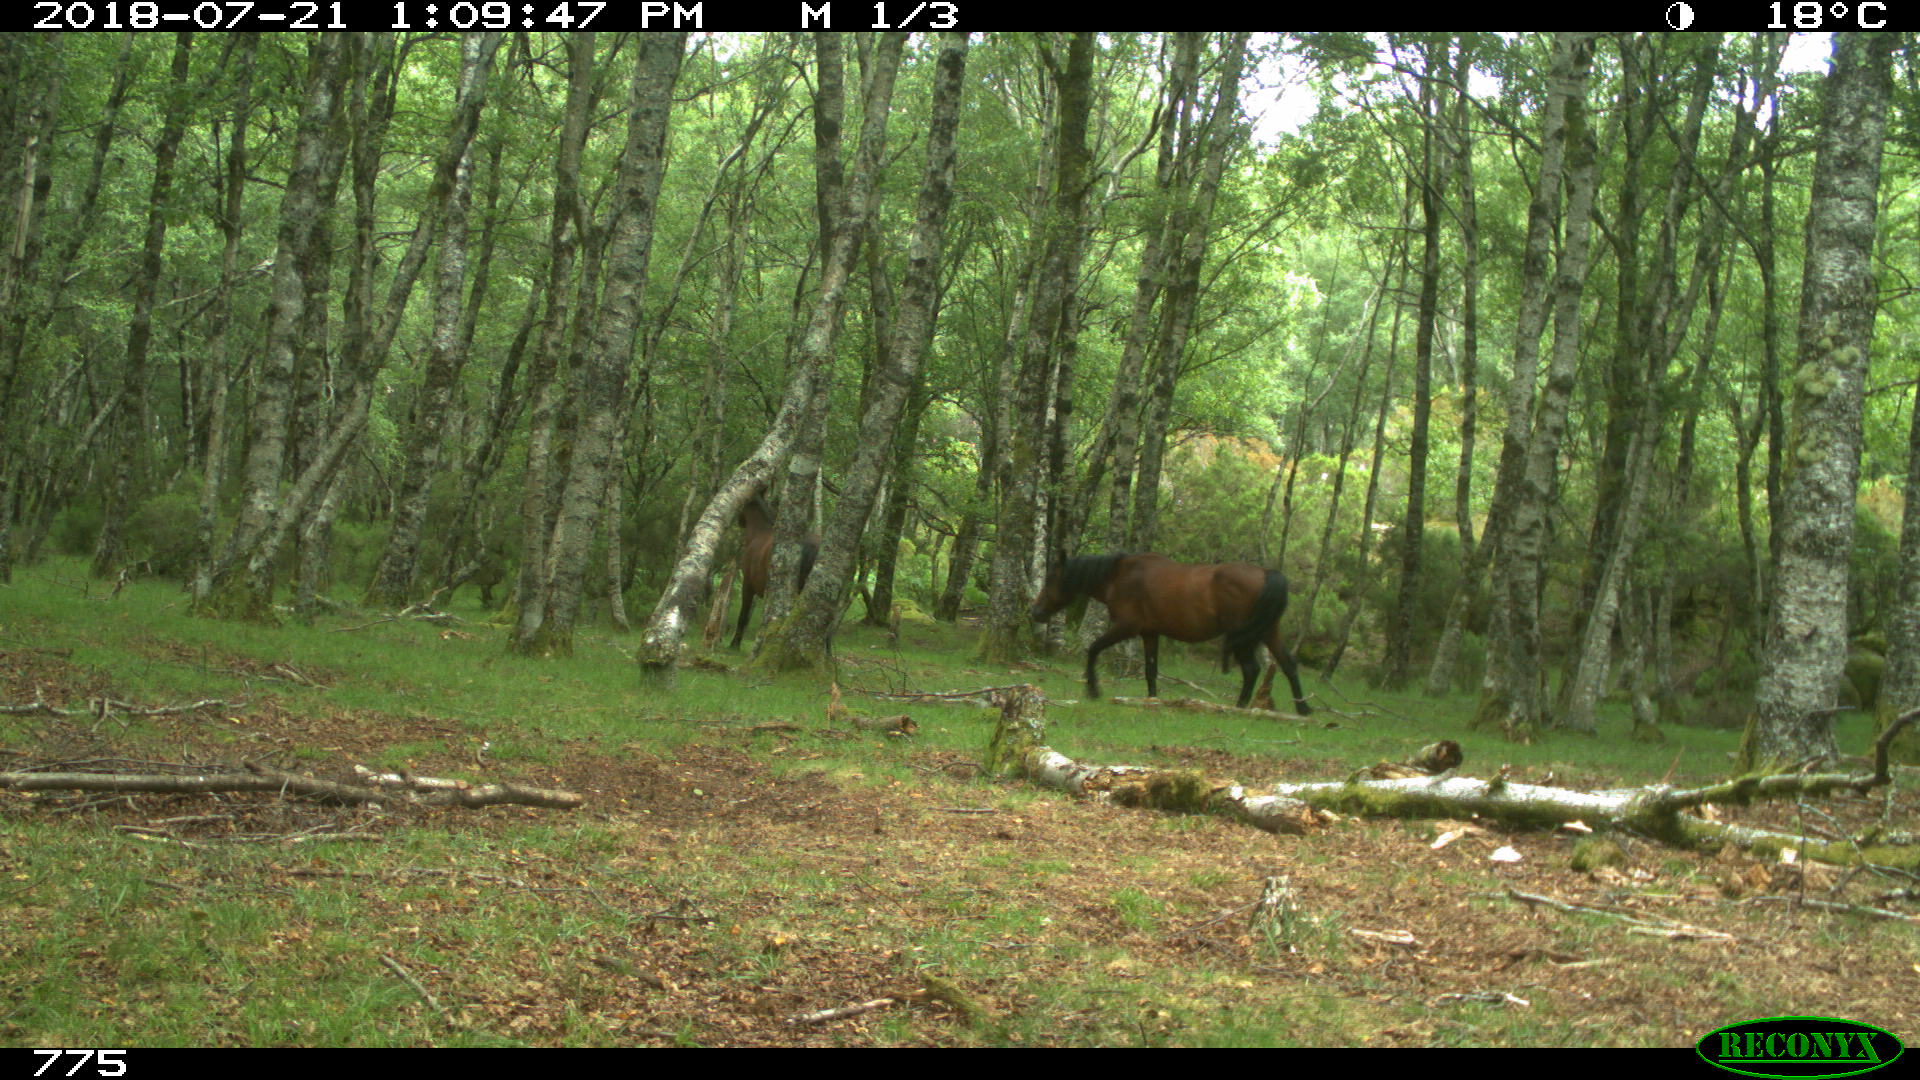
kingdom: Animalia
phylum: Chordata
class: Mammalia
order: Perissodactyla
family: Equidae
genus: Equus
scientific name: Equus caballus
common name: Horse
